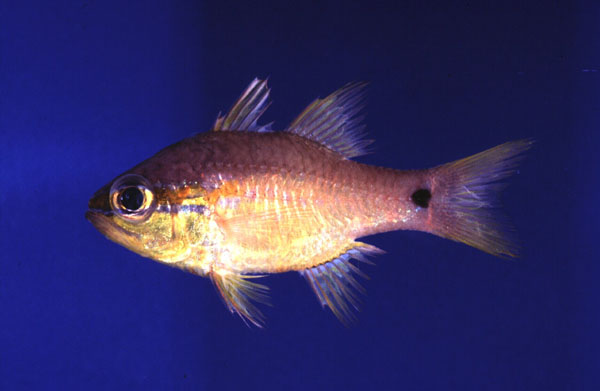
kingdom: Animalia
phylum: Chordata
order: Perciformes
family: Apogonidae
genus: Apogon
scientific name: Apogon
